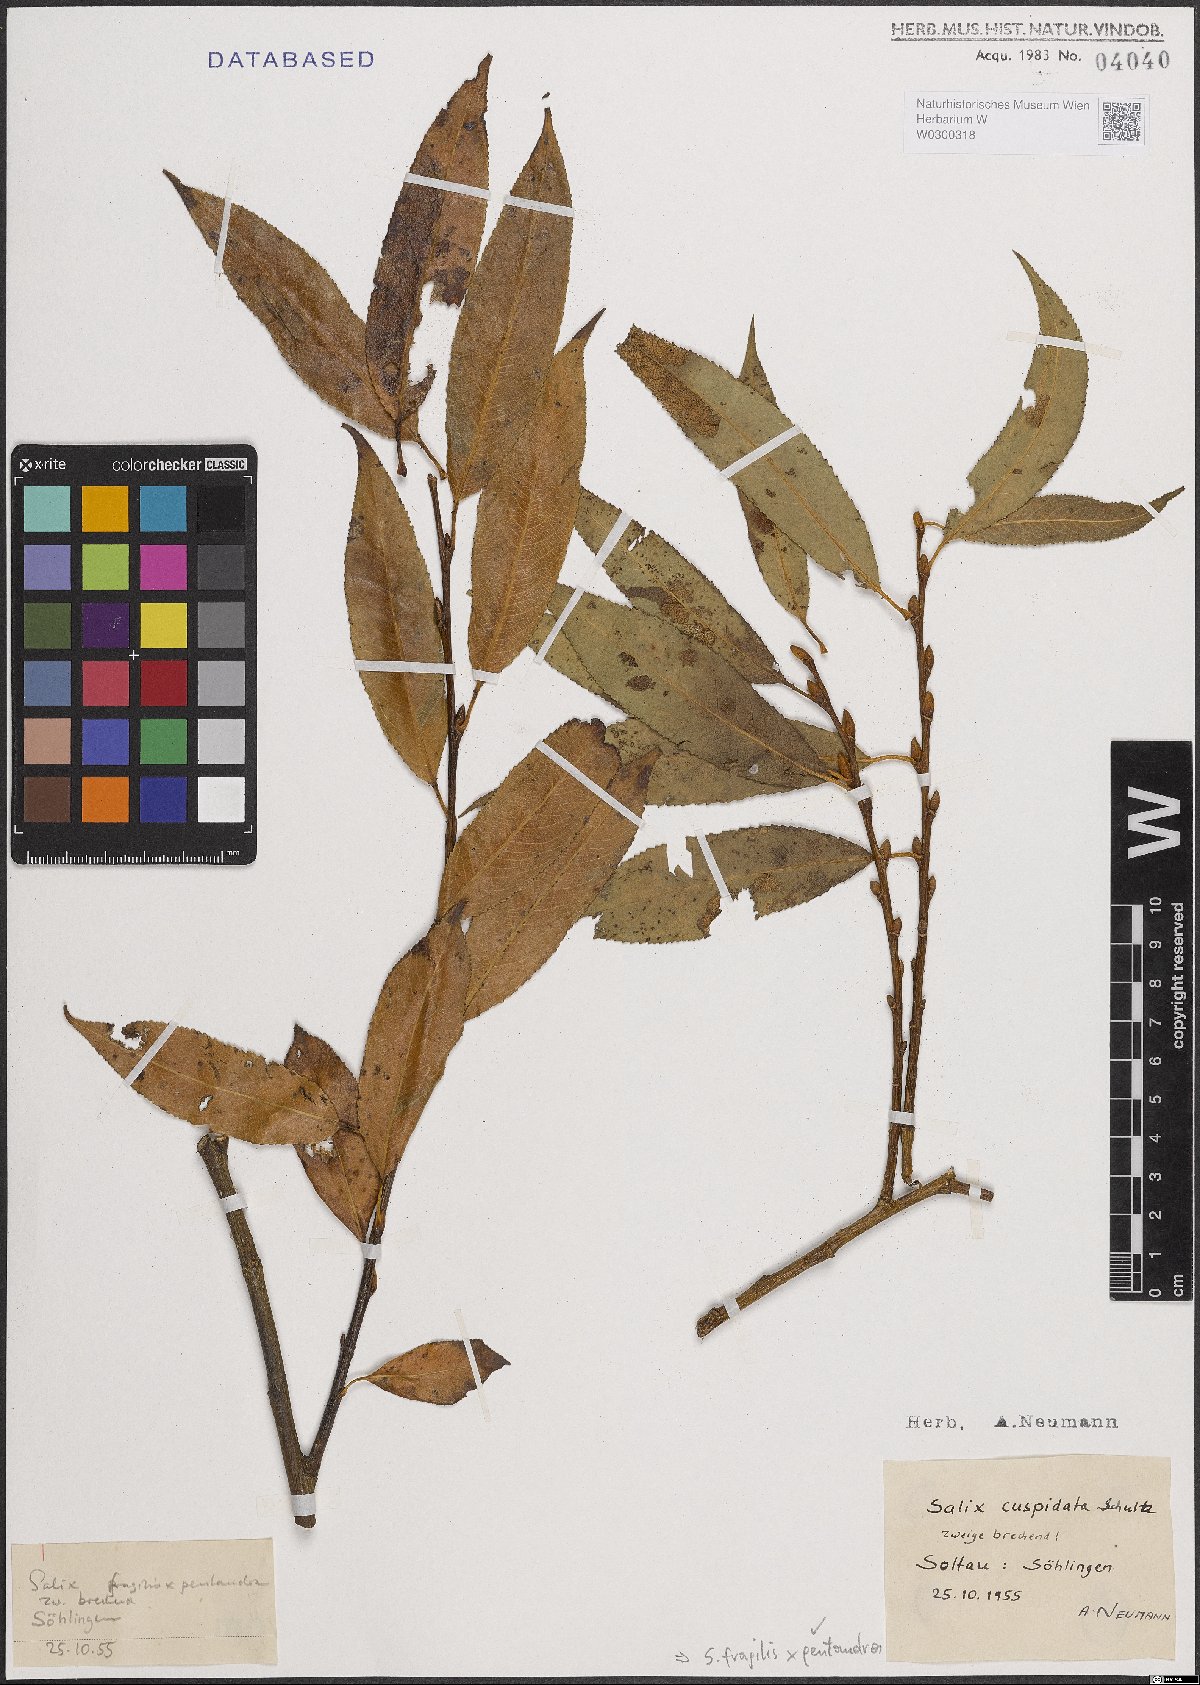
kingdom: Plantae
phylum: Tracheophyta
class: Magnoliopsida
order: Malpighiales
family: Salicaceae
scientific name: Salicaceae
